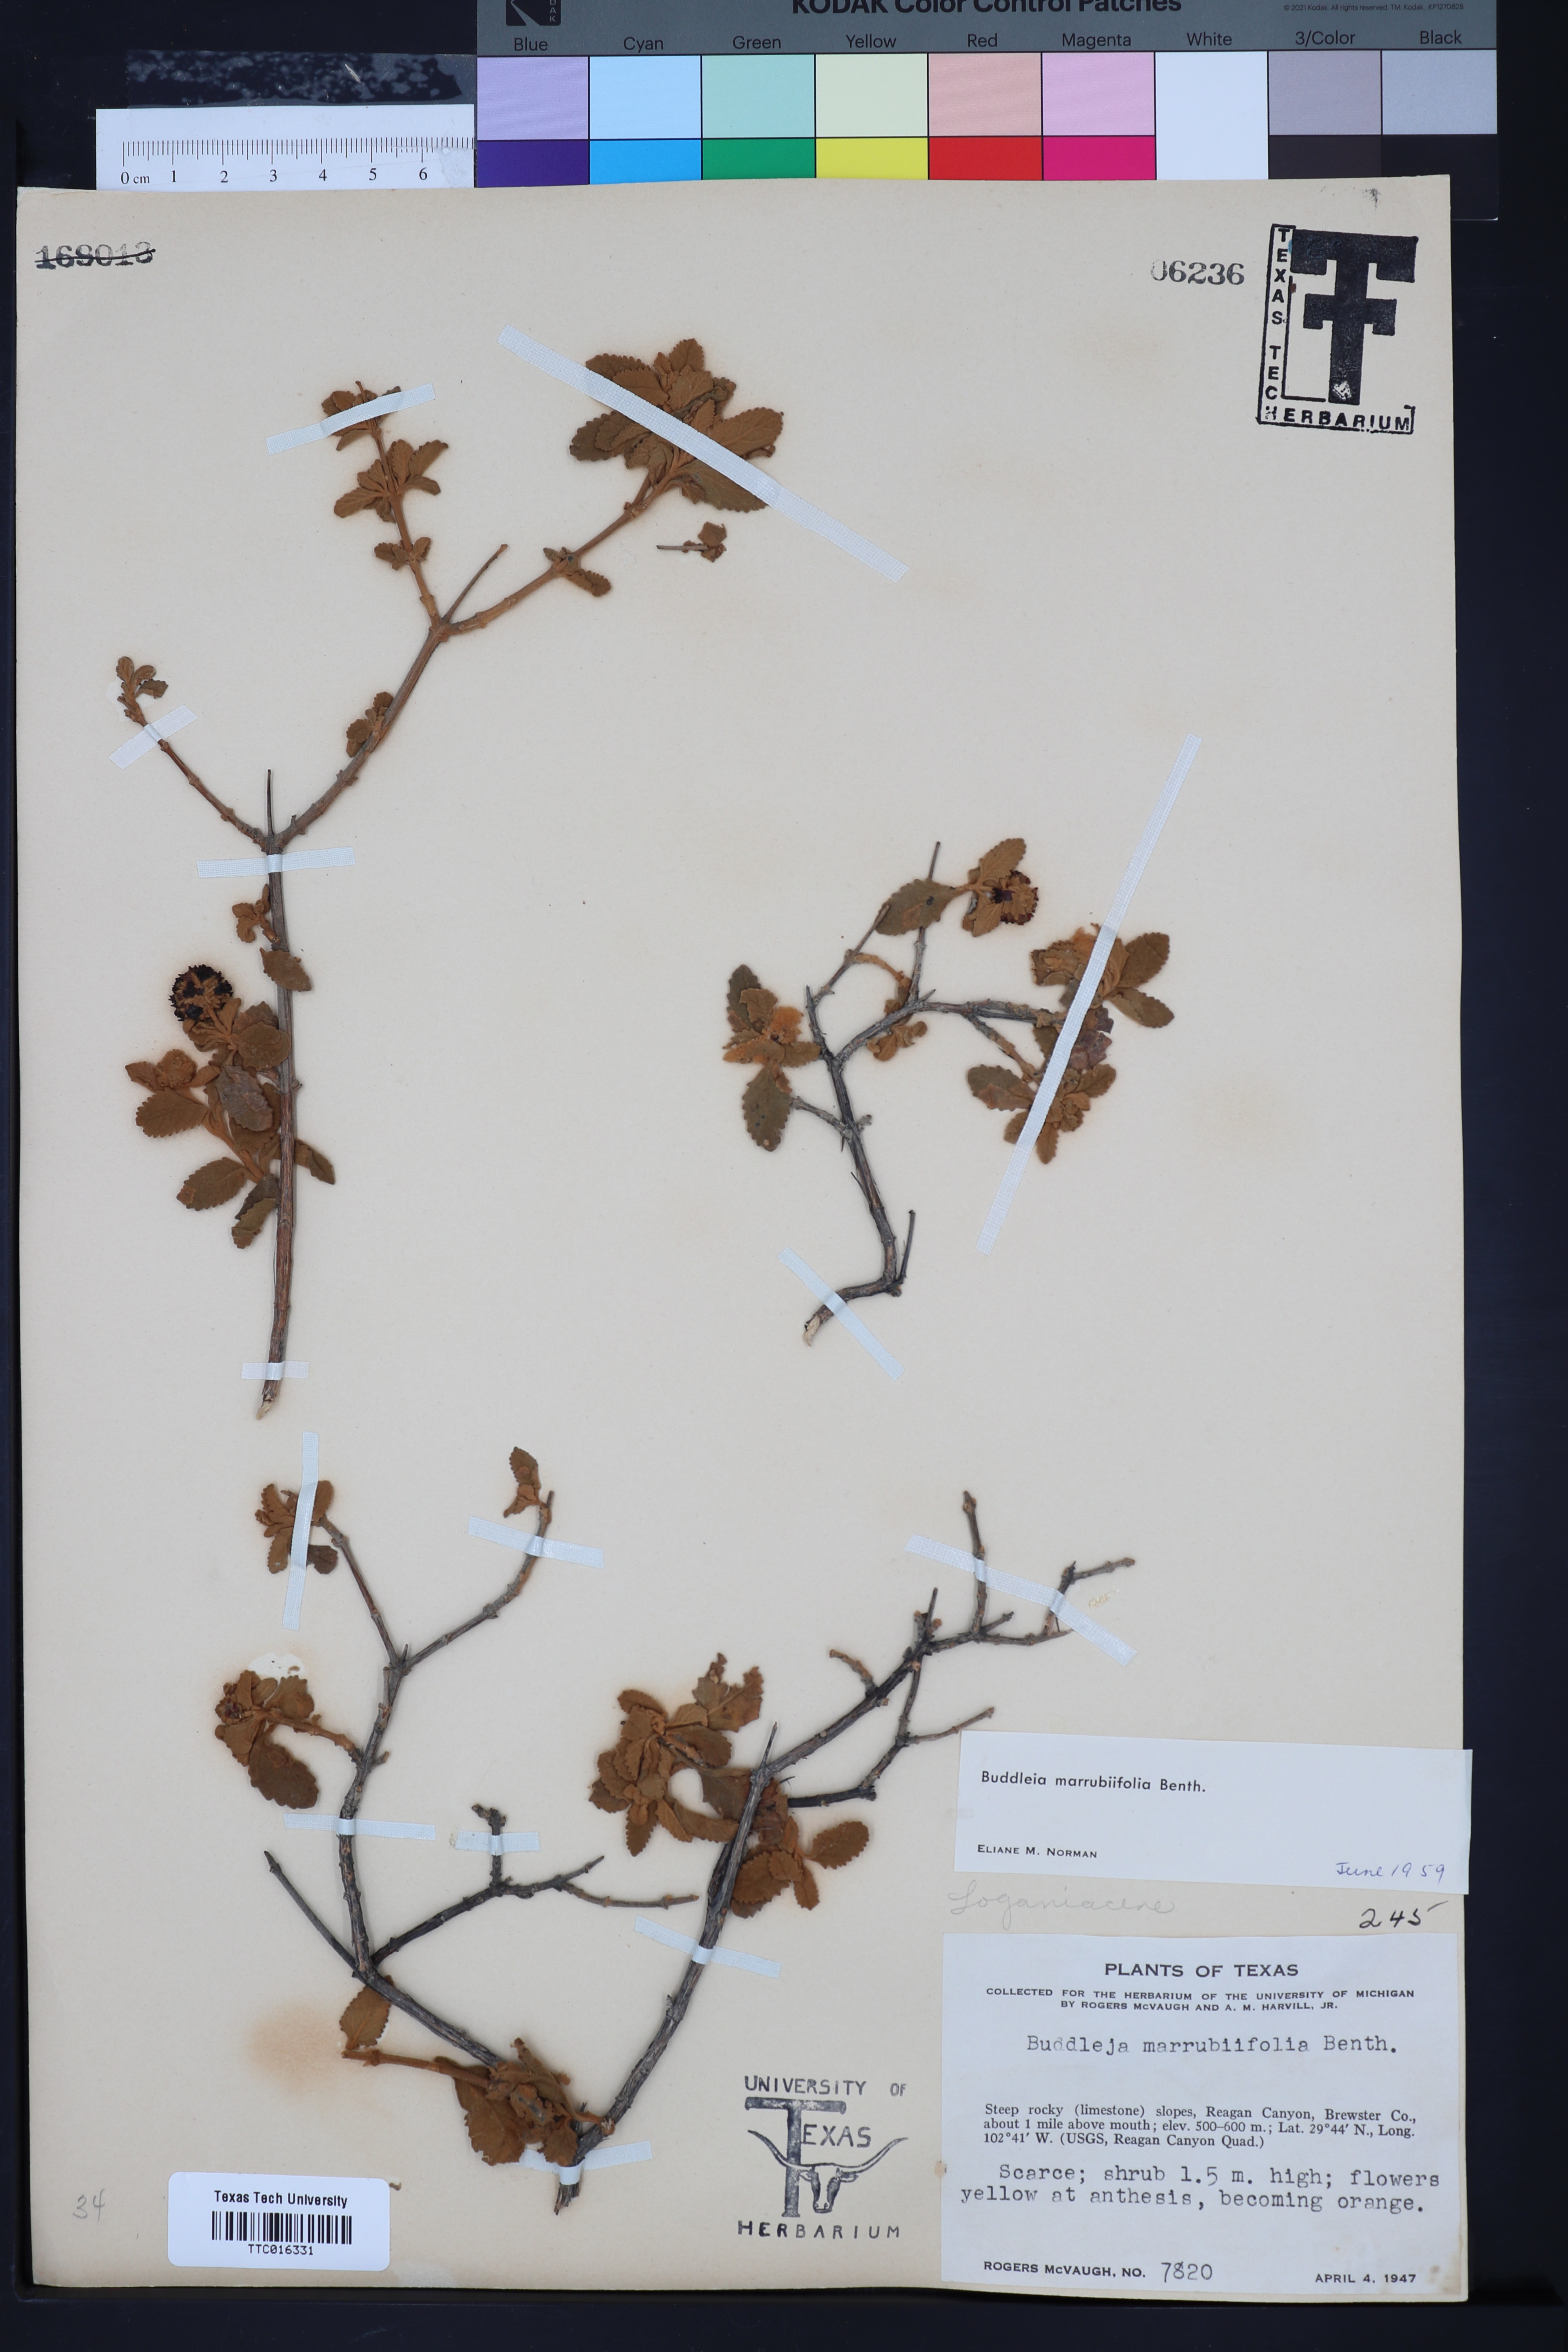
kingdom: Plantae
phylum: Tracheophyta
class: Magnoliopsida
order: Lamiales
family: Scrophulariaceae
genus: Buddleja
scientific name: Buddleja marrubiifolia
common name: Woolly butterfly-bush
